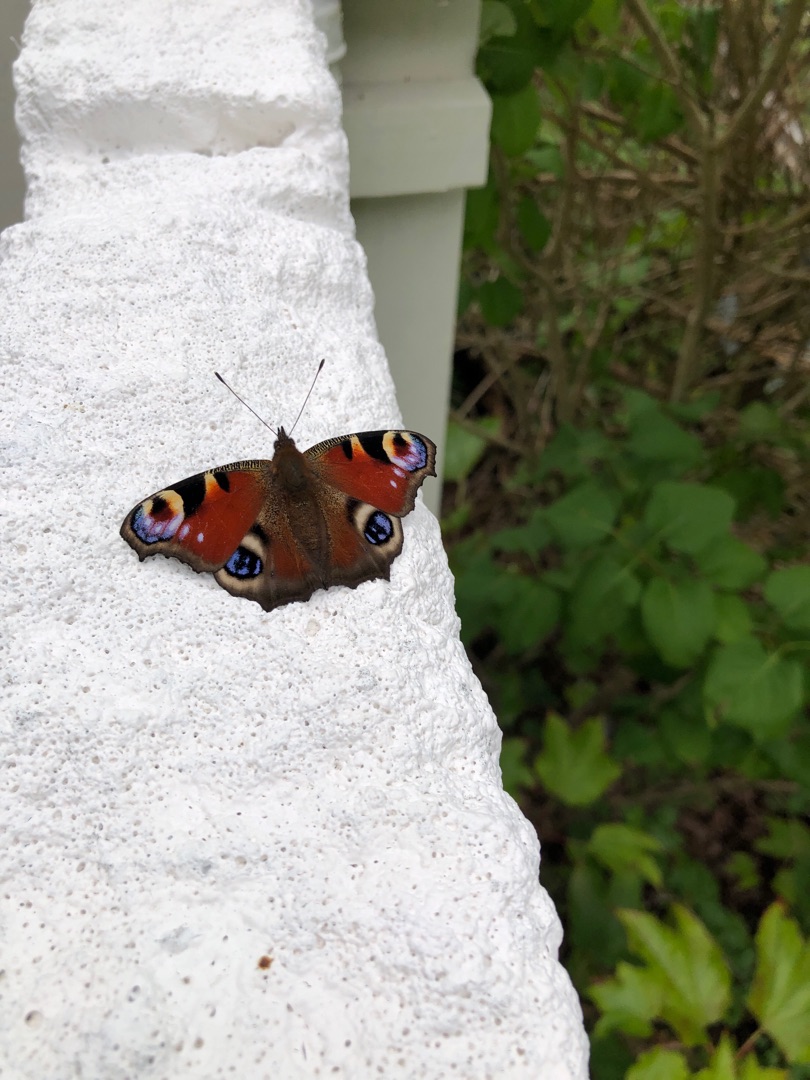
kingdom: Animalia
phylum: Arthropoda
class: Insecta
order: Lepidoptera
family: Nymphalidae
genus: Aglais
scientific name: Aglais io
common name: Dagpåfugleøje
